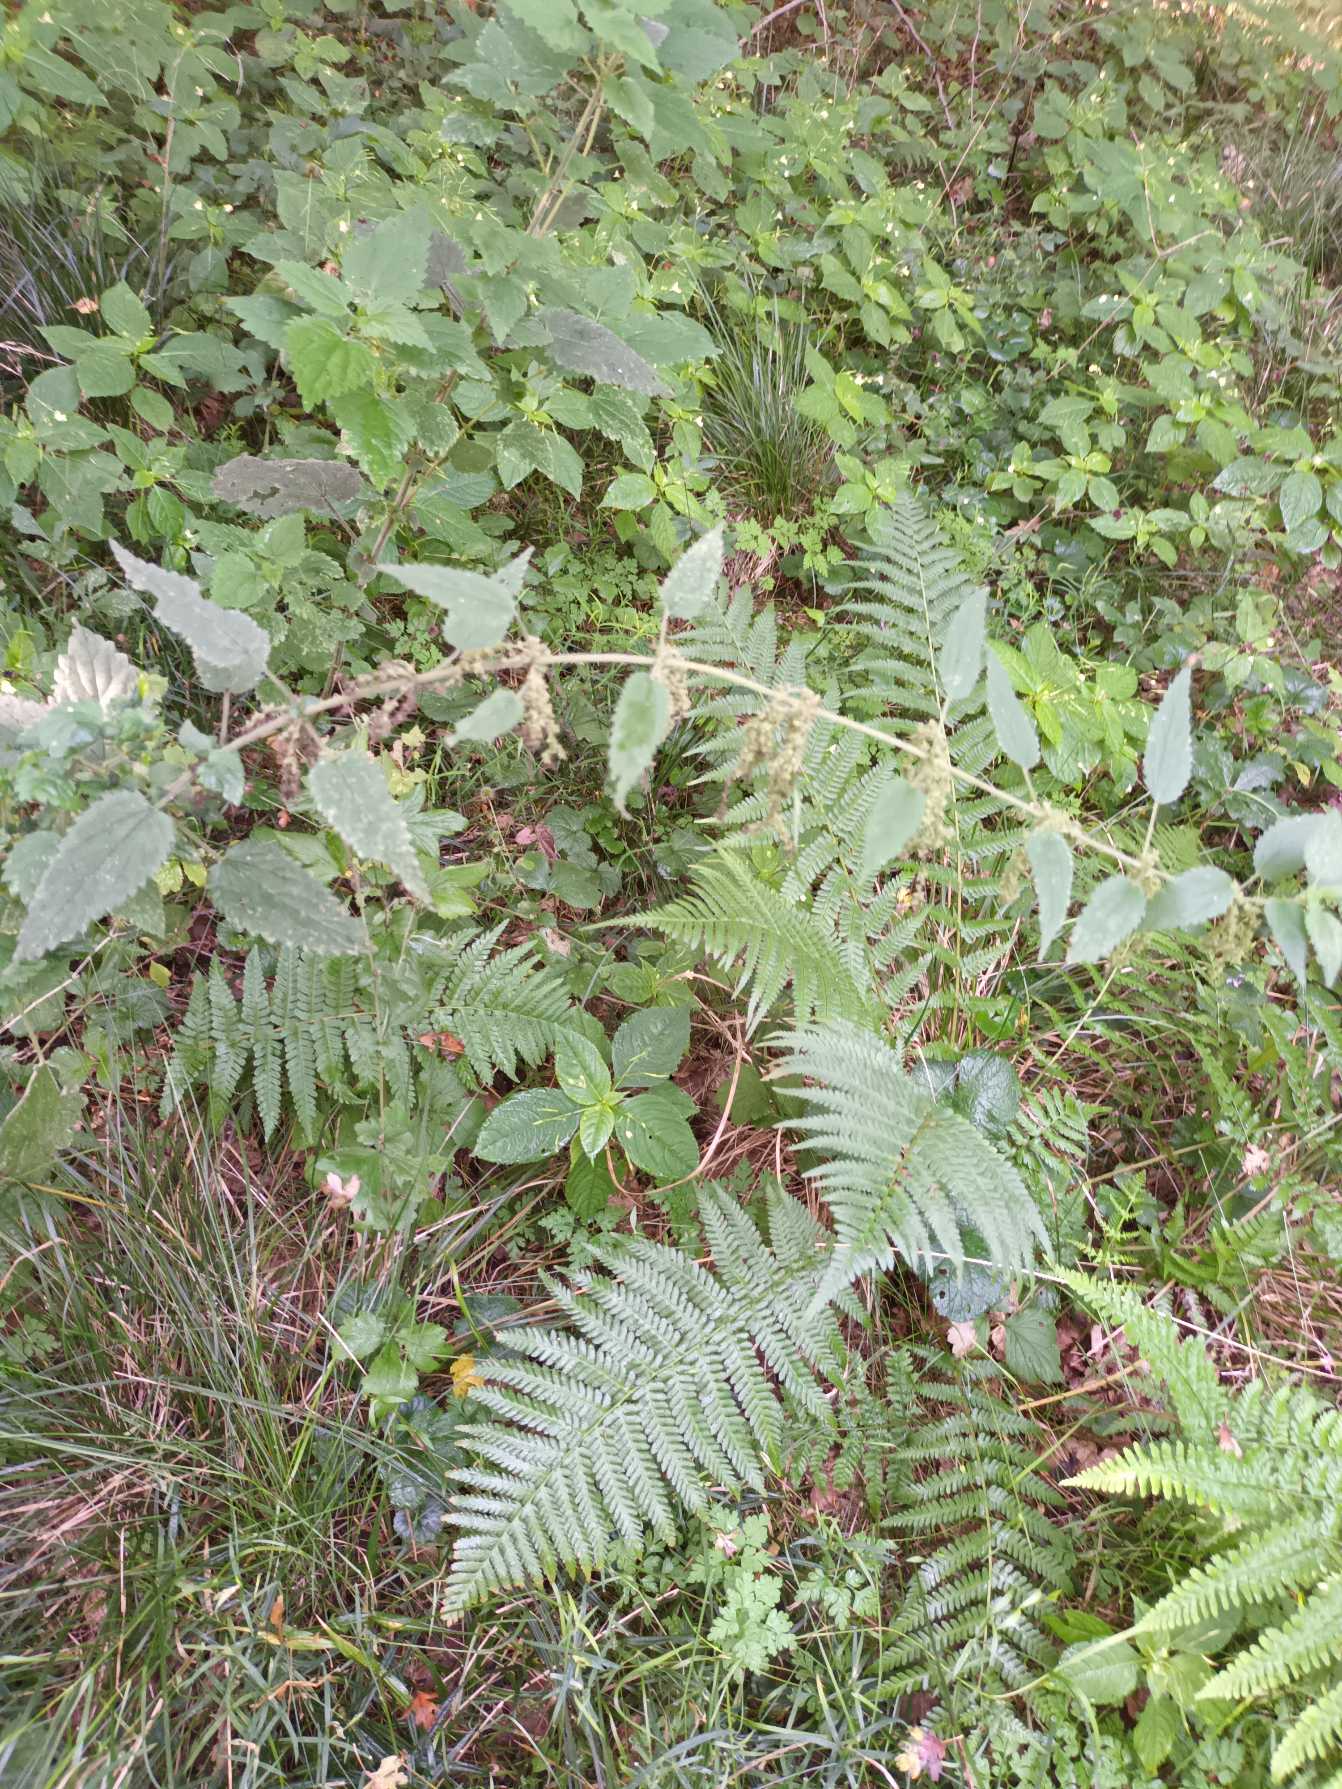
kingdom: Plantae
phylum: Tracheophyta
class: Magnoliopsida
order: Rosales
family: Urticaceae
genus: Urtica
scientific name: Urtica dioica
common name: Stor nælde
